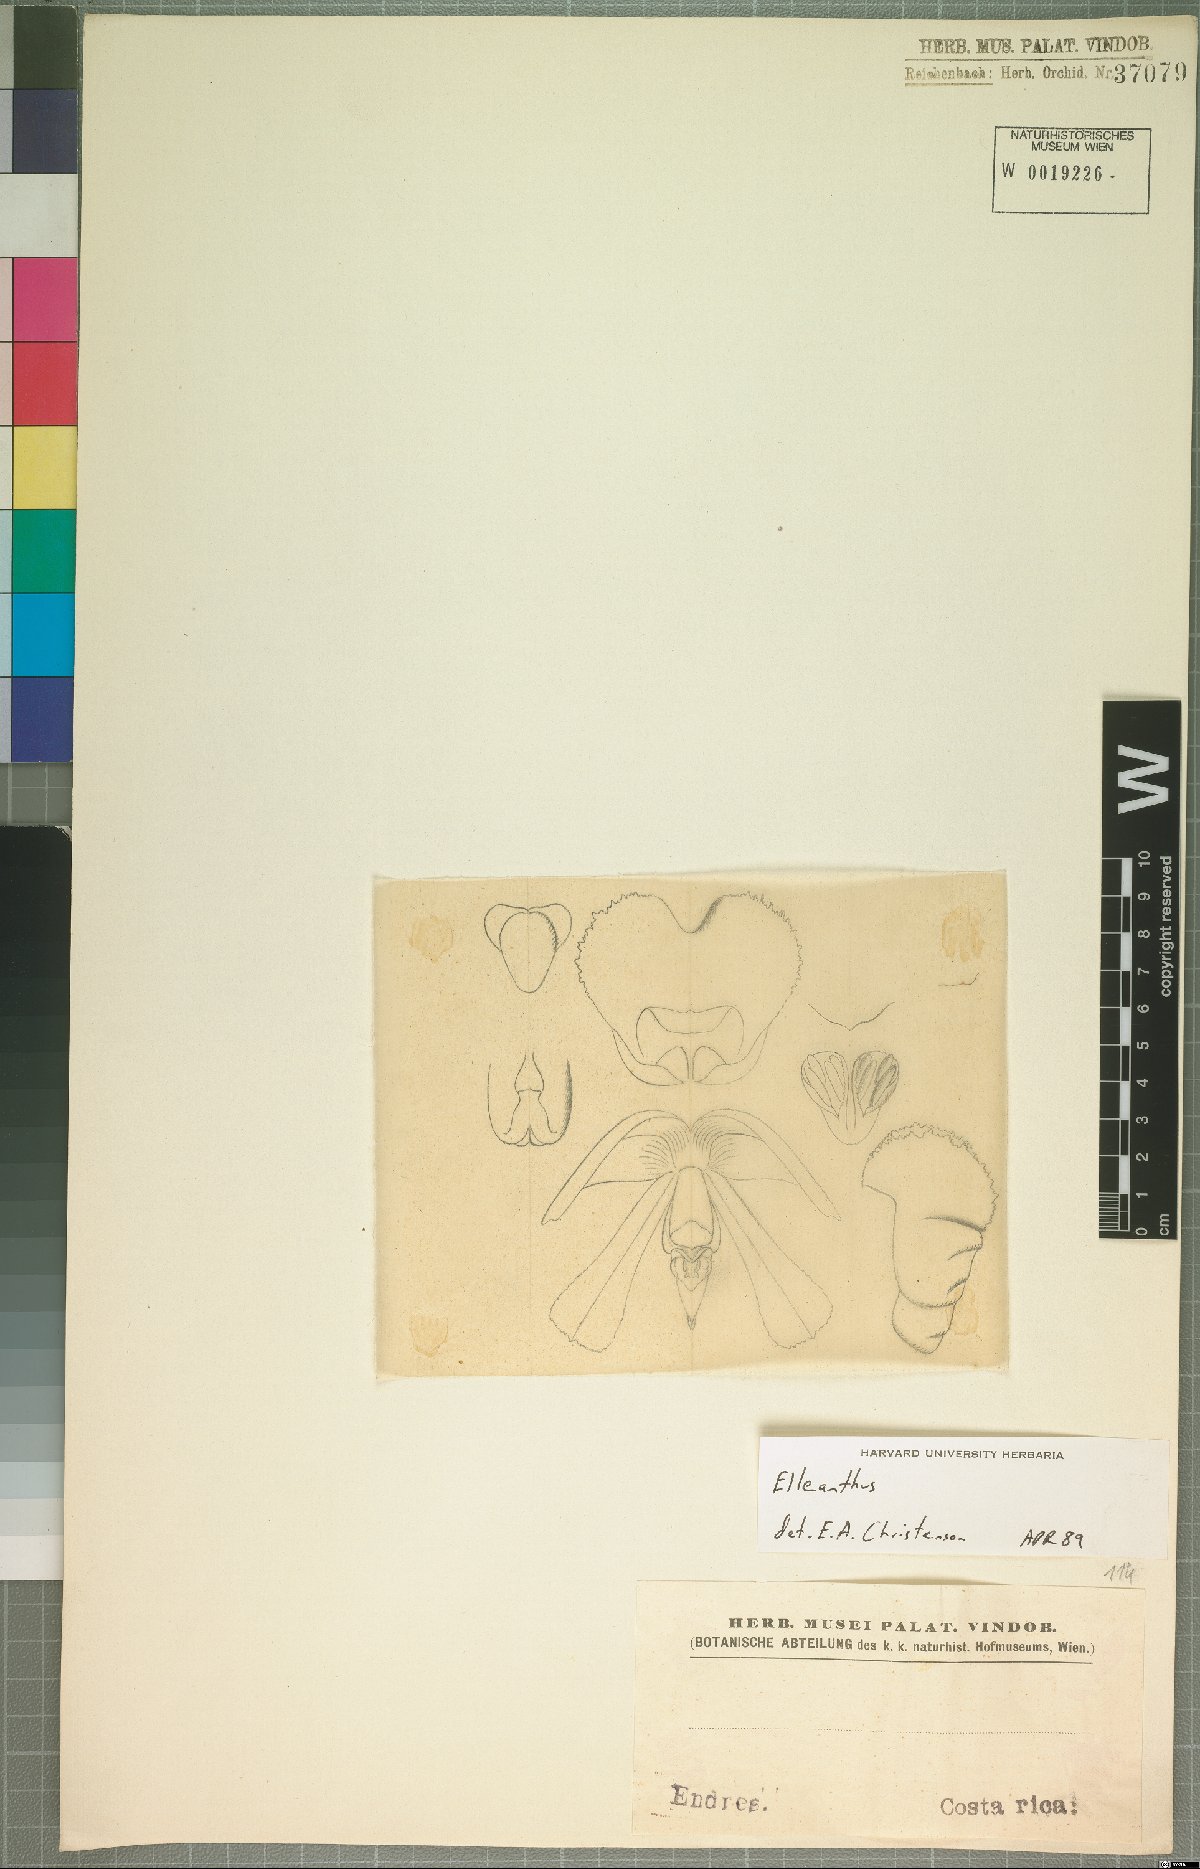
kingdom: Plantae
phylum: Tracheophyta
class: Liliopsida
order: Asparagales
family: Orchidaceae
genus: Elleanthus
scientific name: Elleanthus
